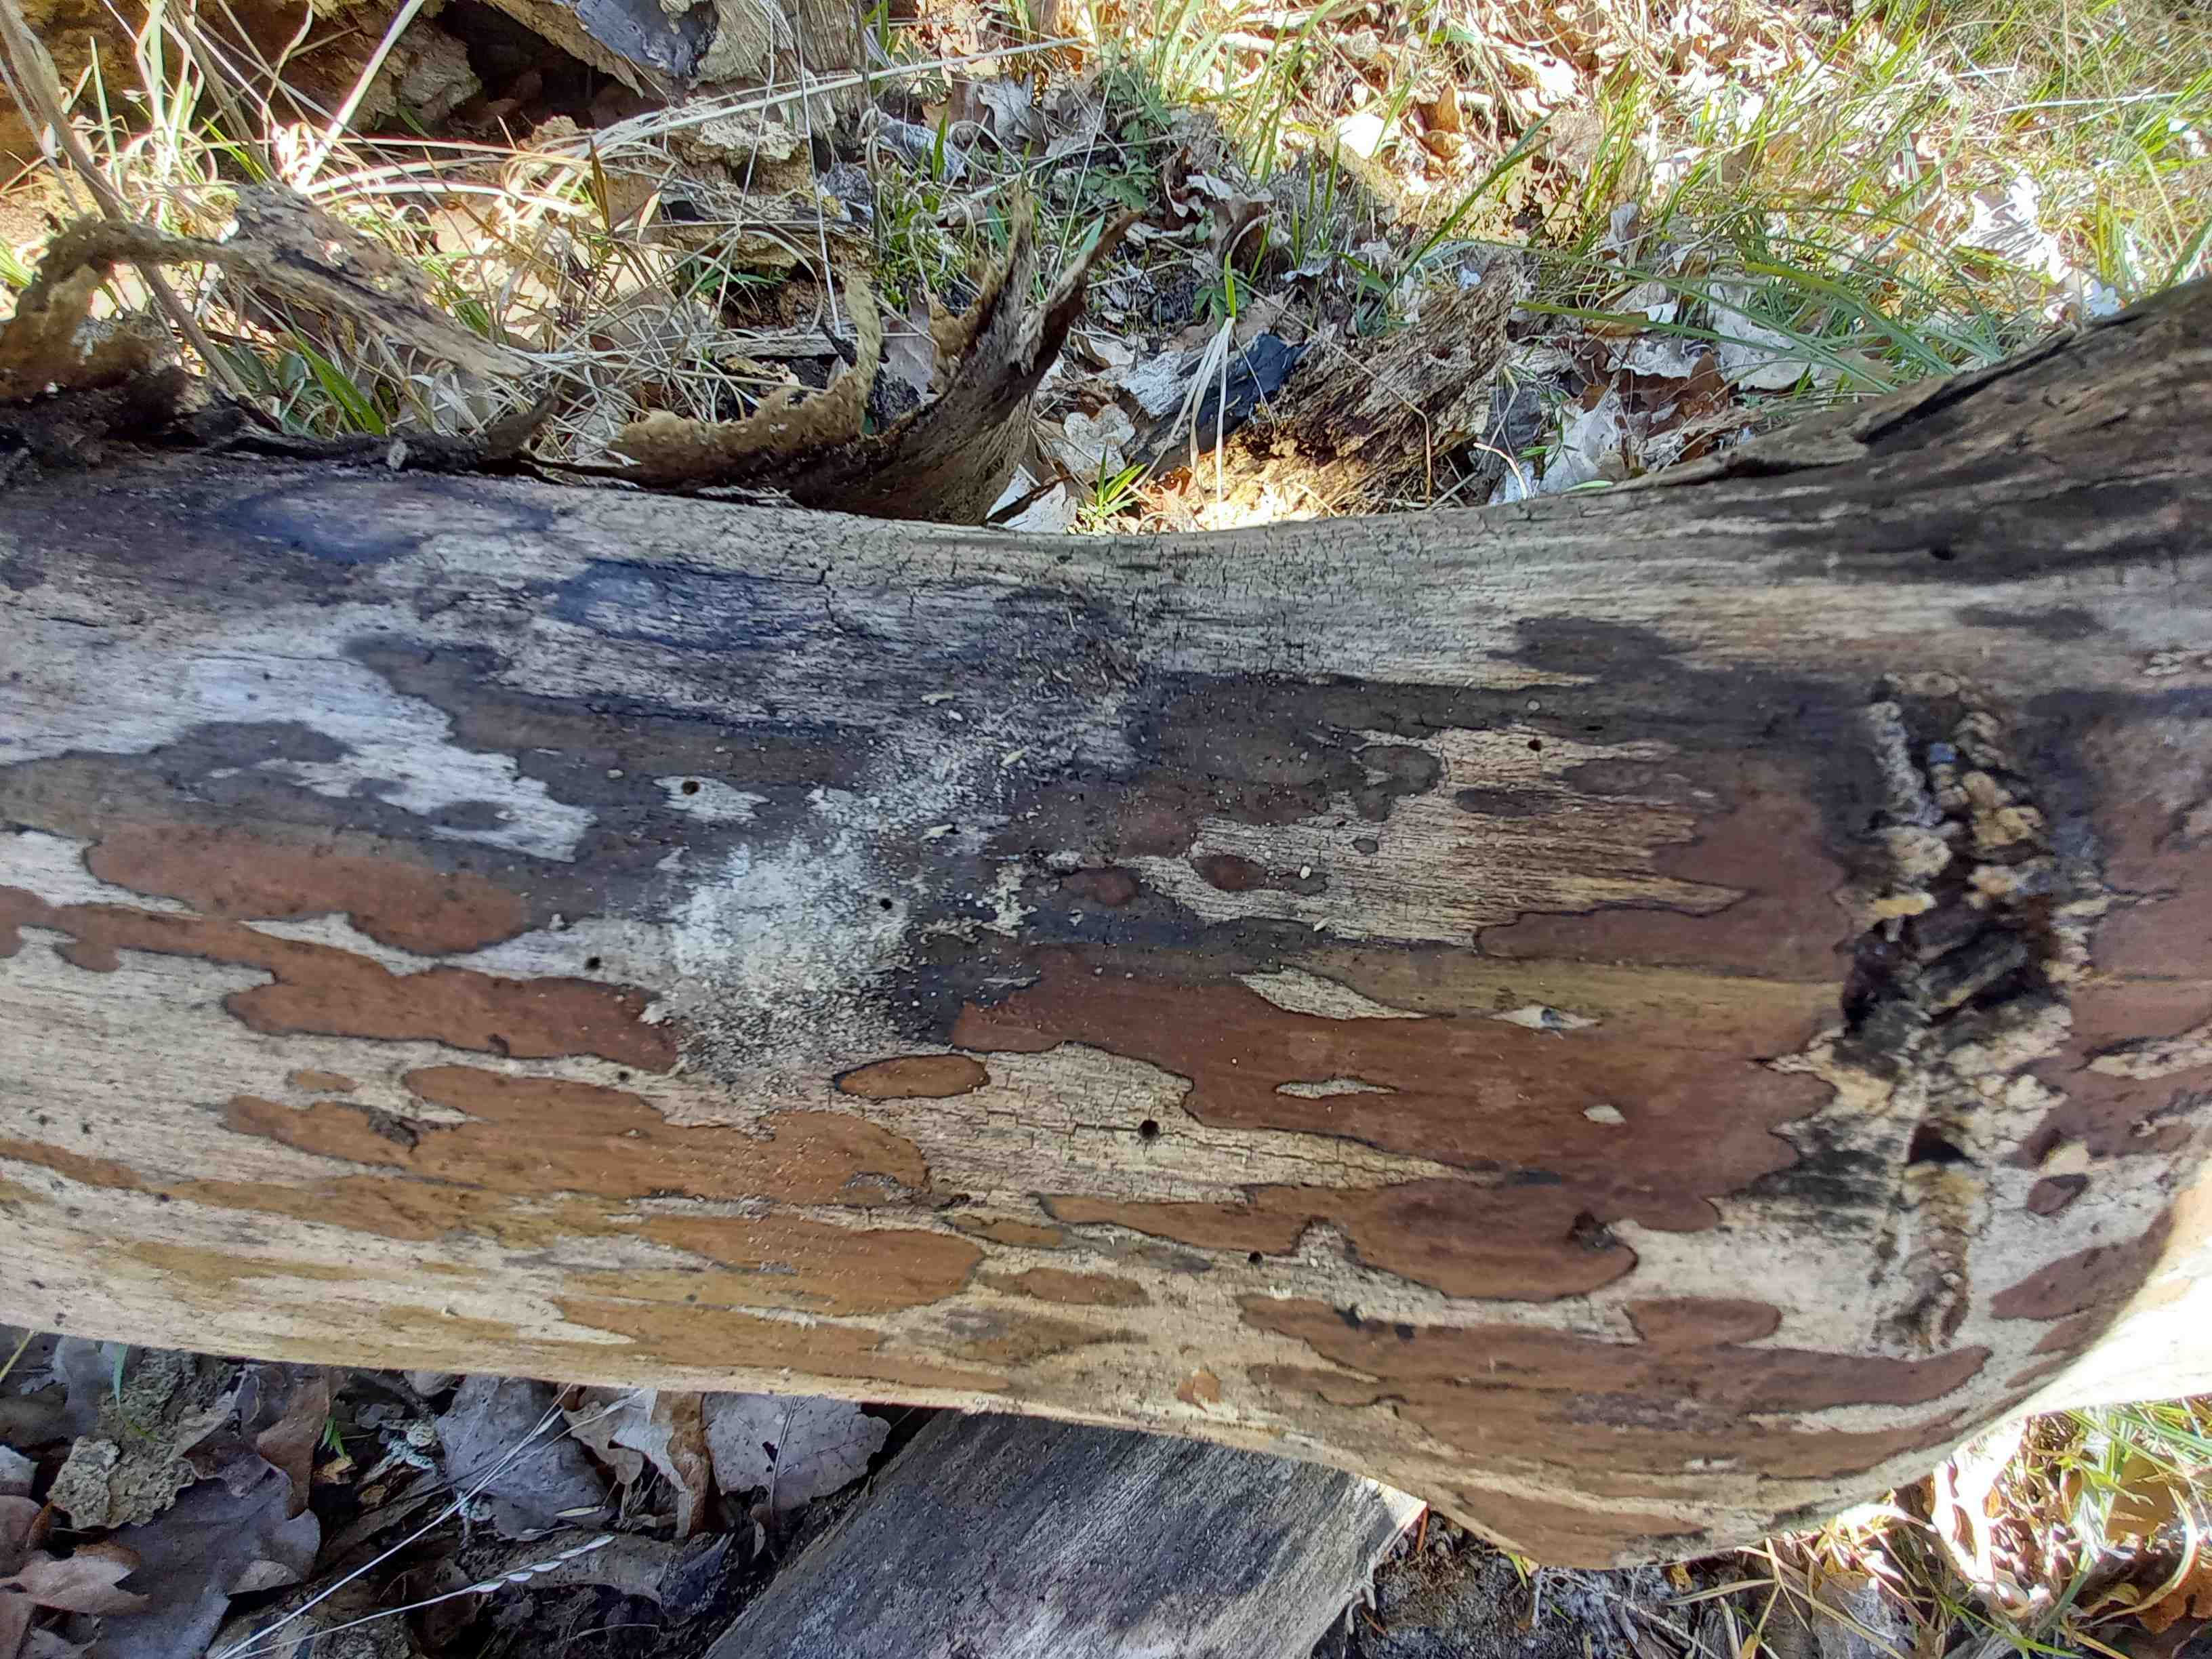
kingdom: Fungi
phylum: Ascomycota
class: Sordariomycetes
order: Xylariales
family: Hypoxylaceae
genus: Hypoxylon
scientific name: Hypoxylon petriniae
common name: nedsænket kulbær
